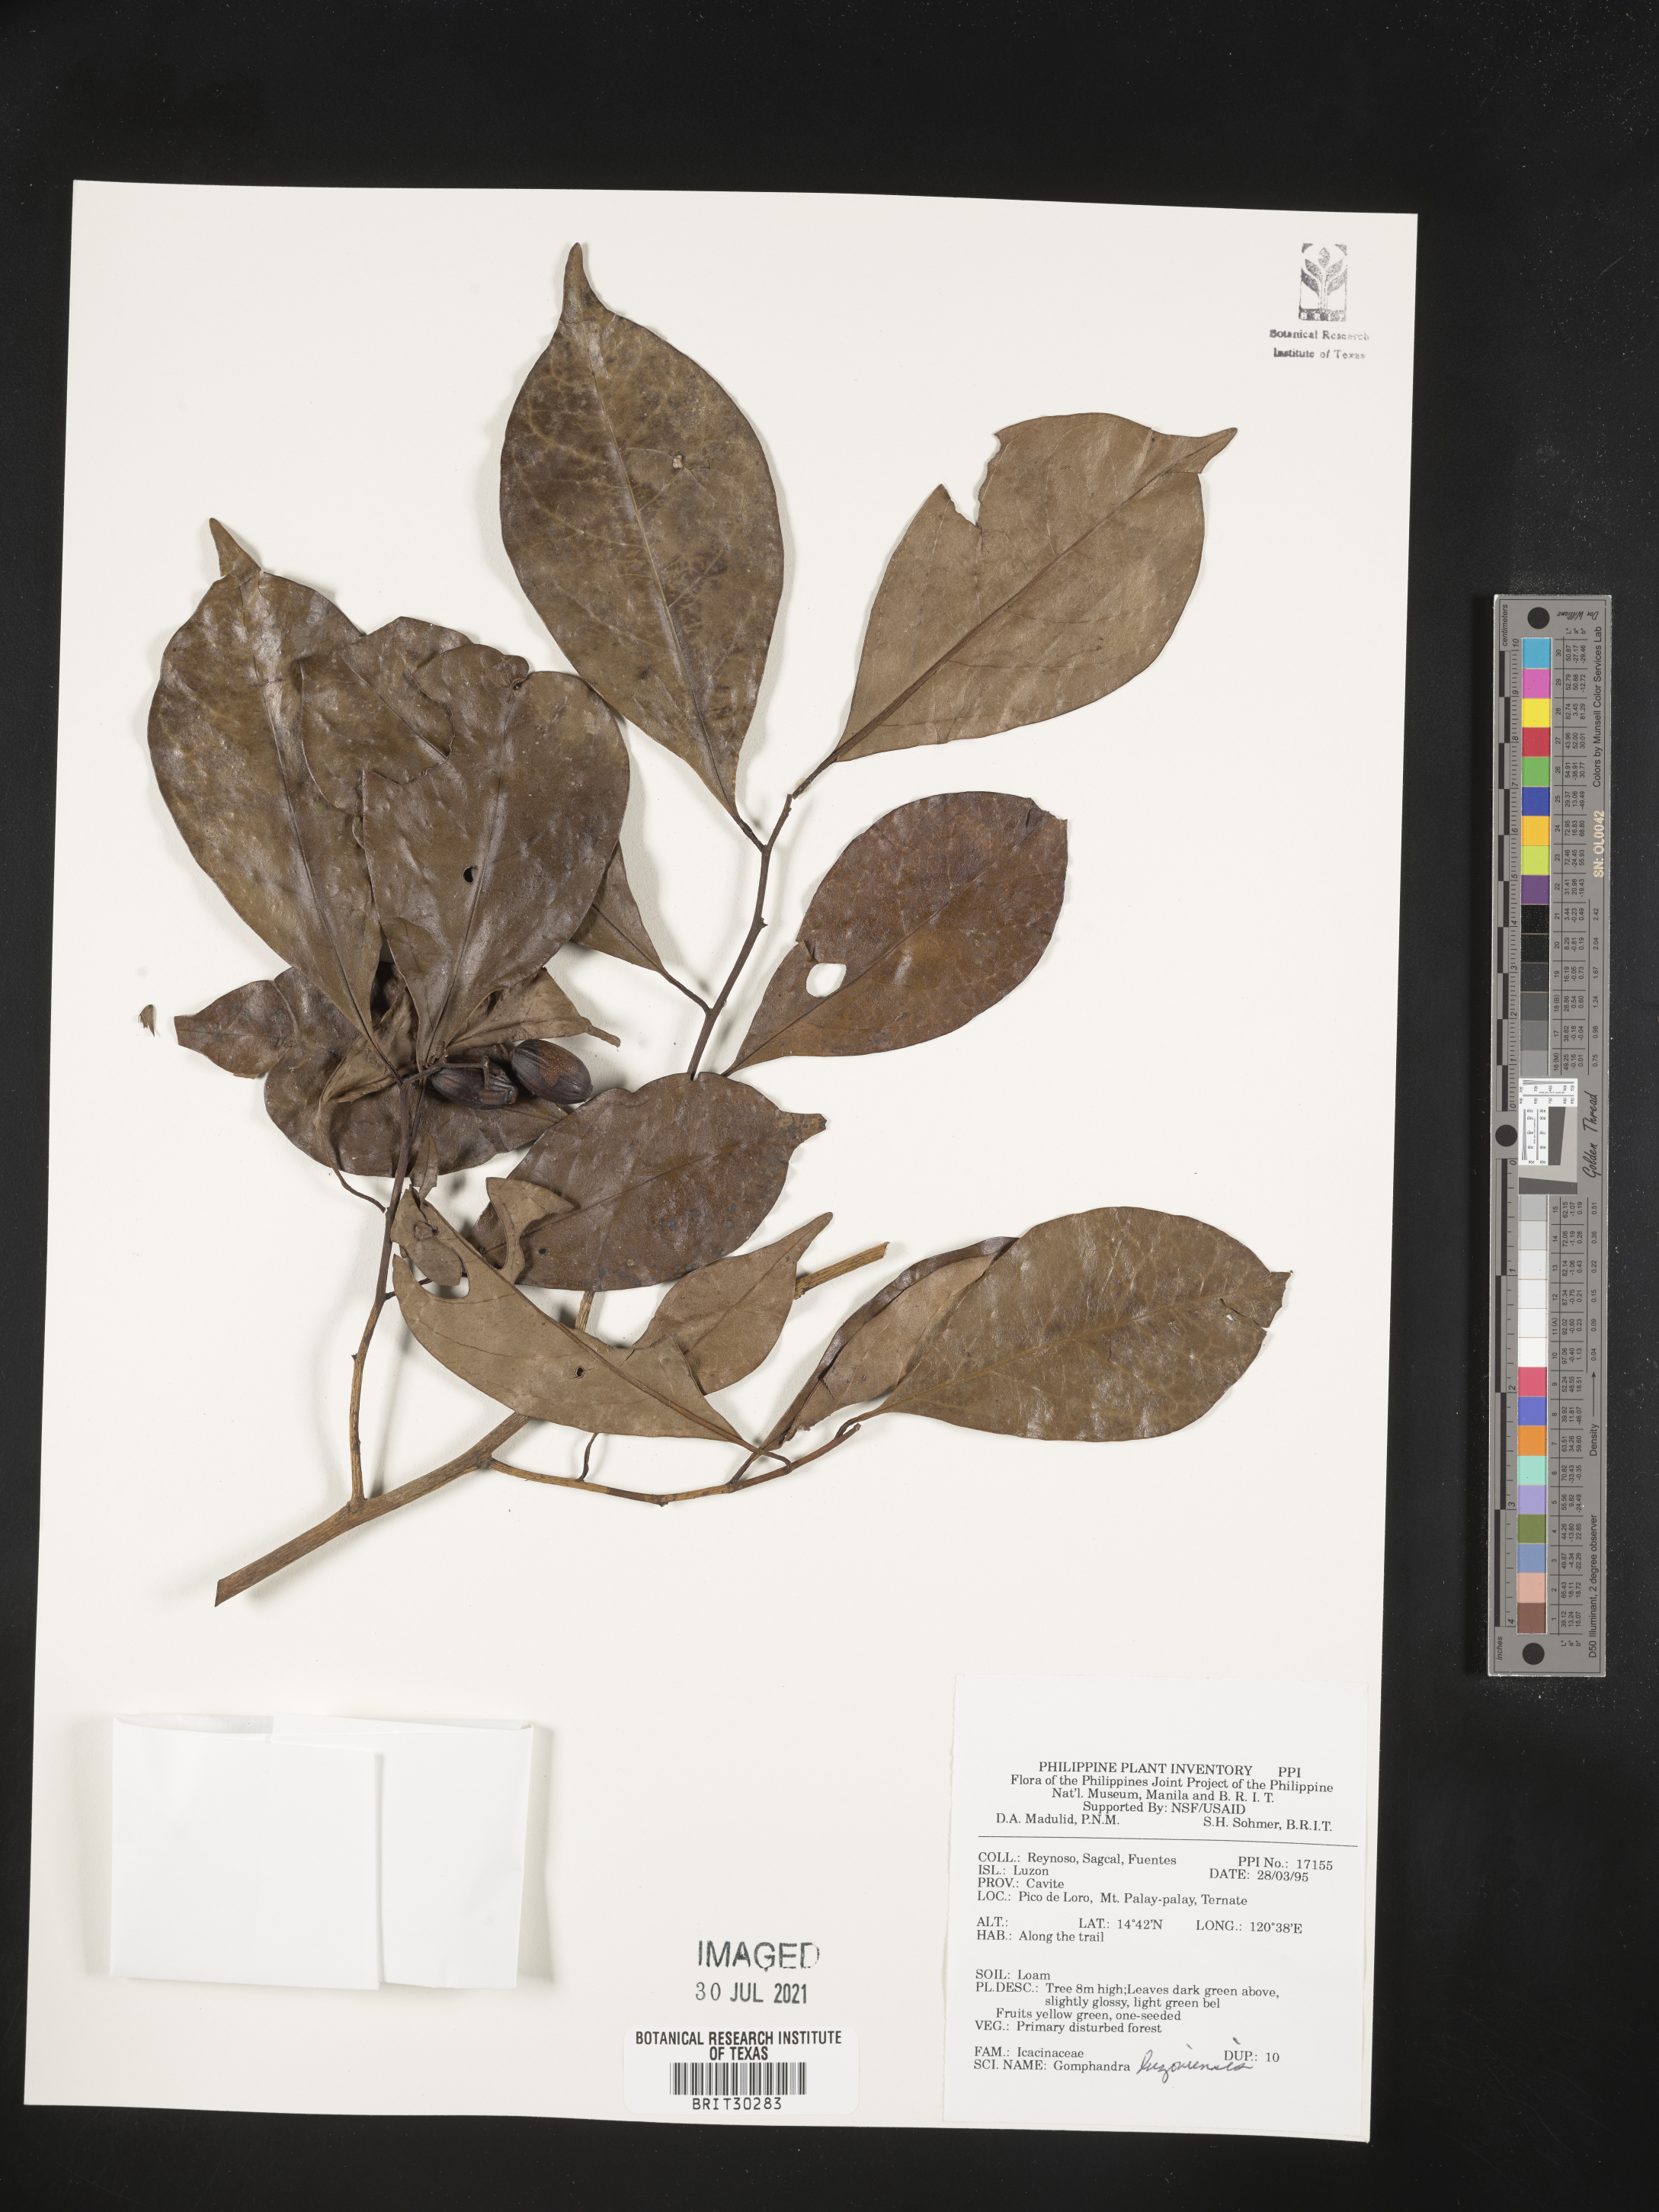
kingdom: Plantae
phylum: Tracheophyta
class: Magnoliopsida
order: Cardiopteridales
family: Stemonuraceae
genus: Gomphandra
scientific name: Gomphandra luzoniensis
